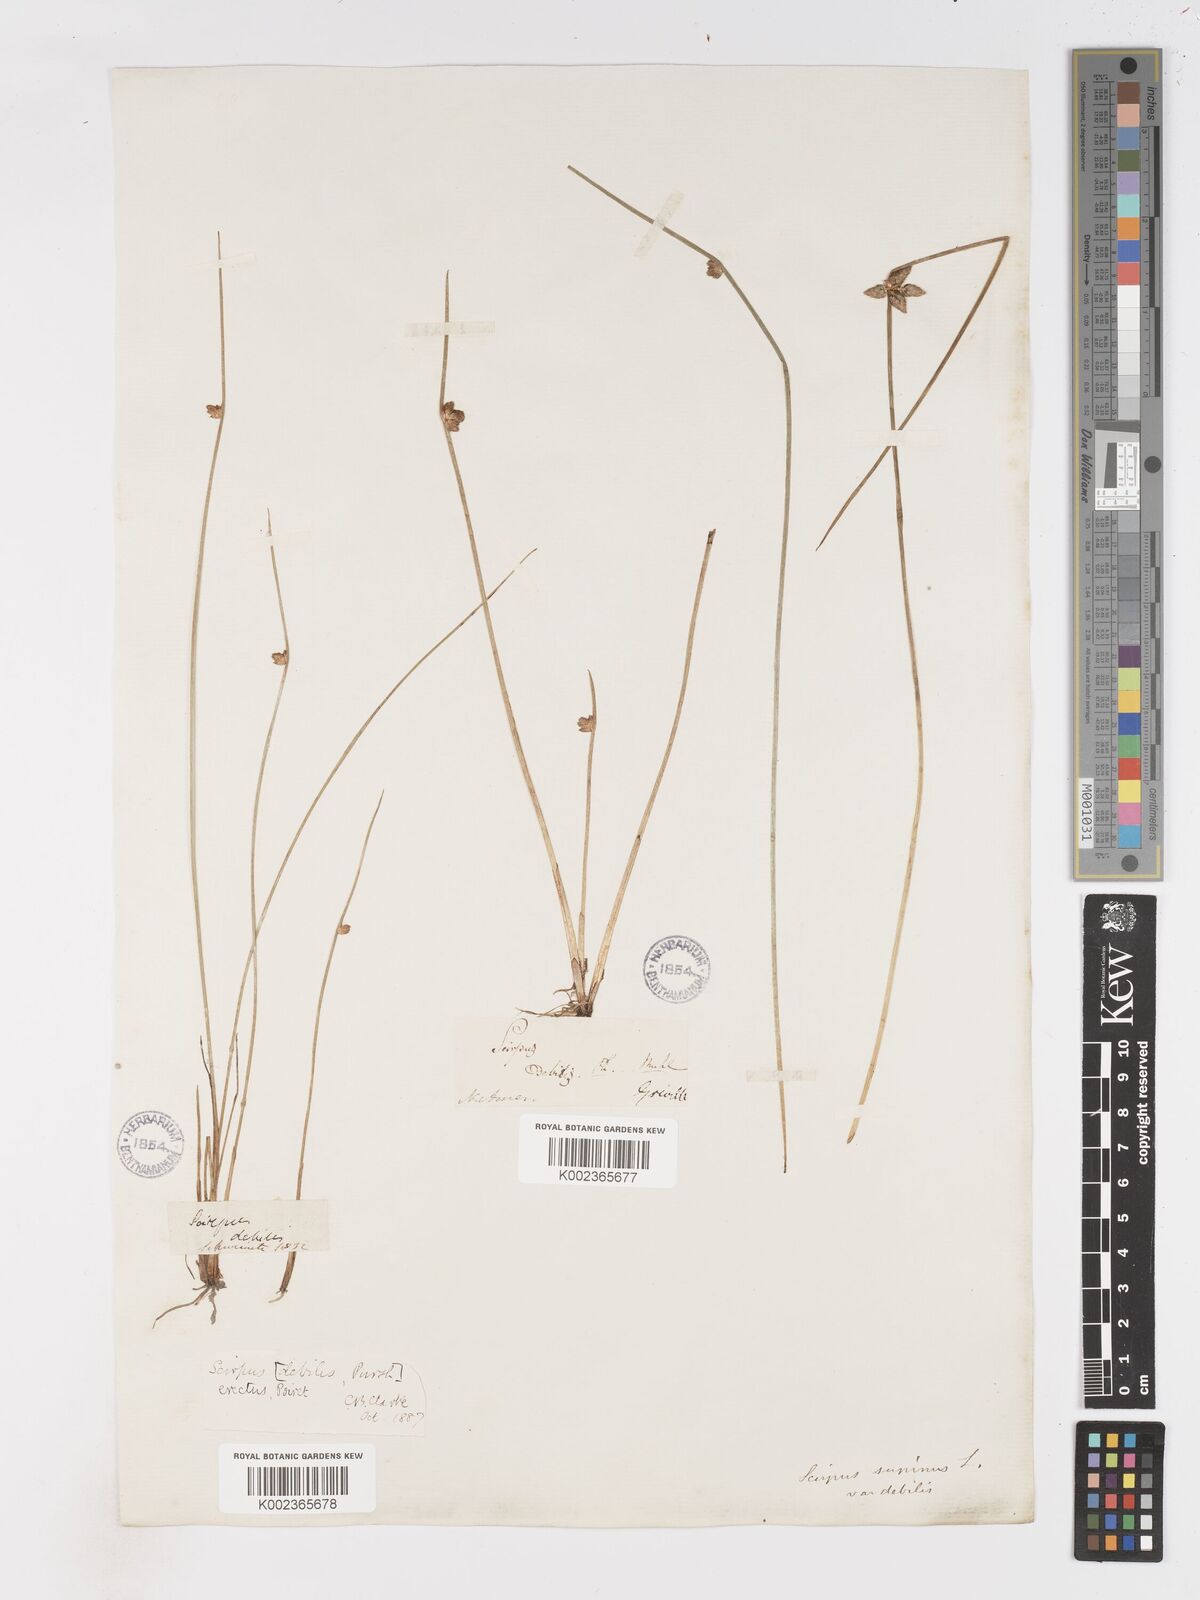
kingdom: Plantae
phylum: Tracheophyta
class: Liliopsida
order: Poales
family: Cyperaceae
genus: Schoenoplectiella
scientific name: Schoenoplectiella purshiana
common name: Weak-stalked bulrush
